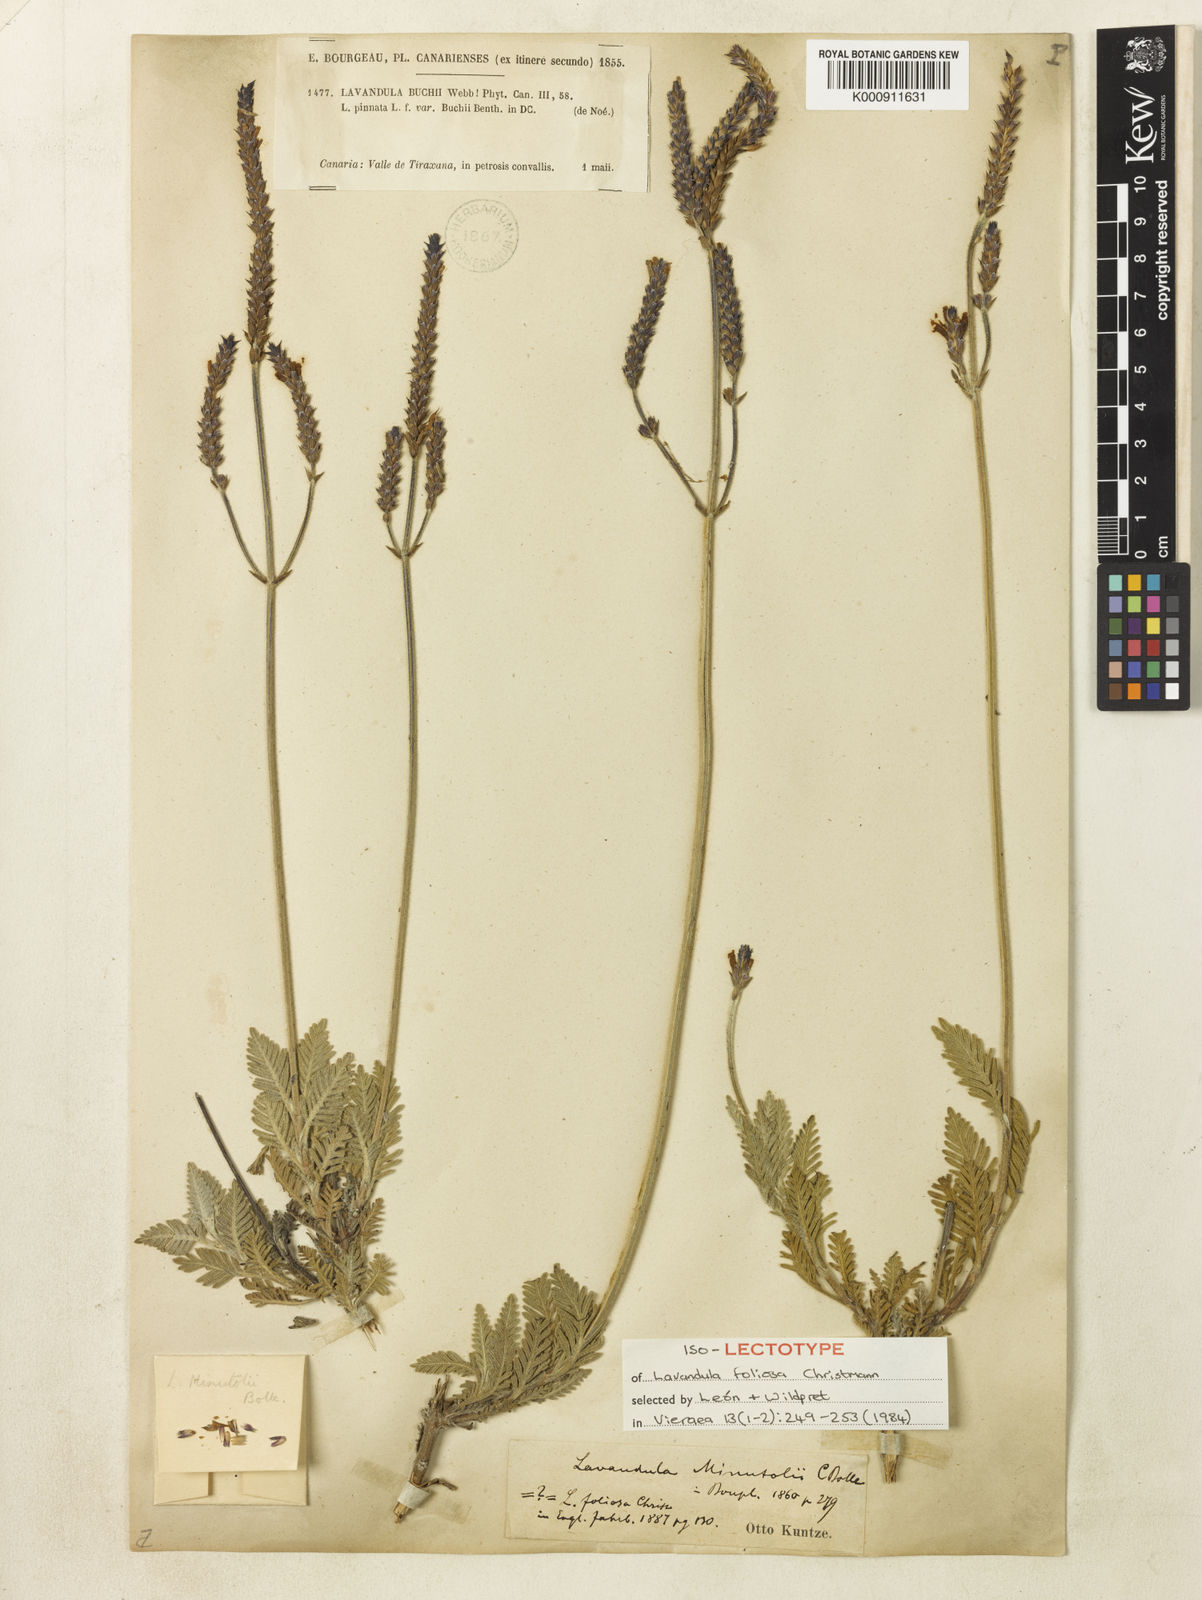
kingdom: Plantae
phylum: Tracheophyta
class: Magnoliopsida
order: Lamiales
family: Lamiaceae
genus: Lavandula
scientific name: Lavandula minutolii
